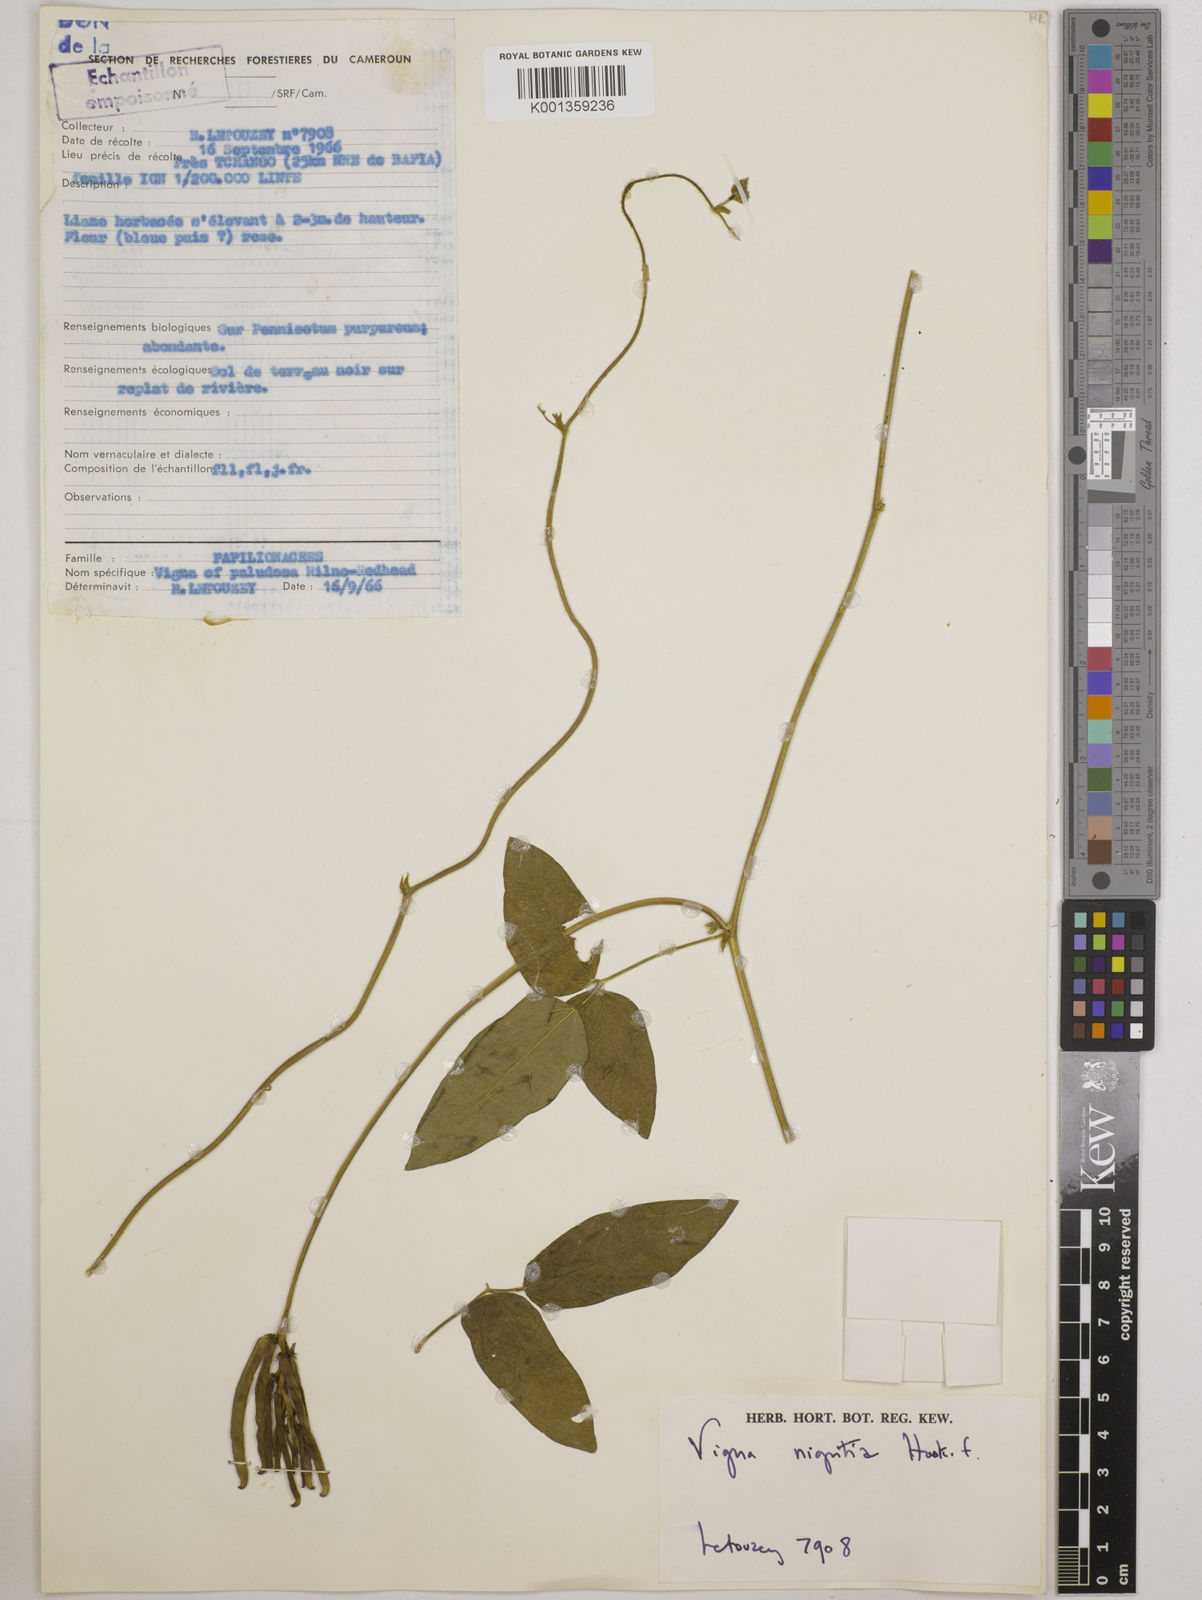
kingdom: Plantae
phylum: Tracheophyta
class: Magnoliopsida
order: Fabales
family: Fabaceae
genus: Vigna
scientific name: Vigna nigritia
